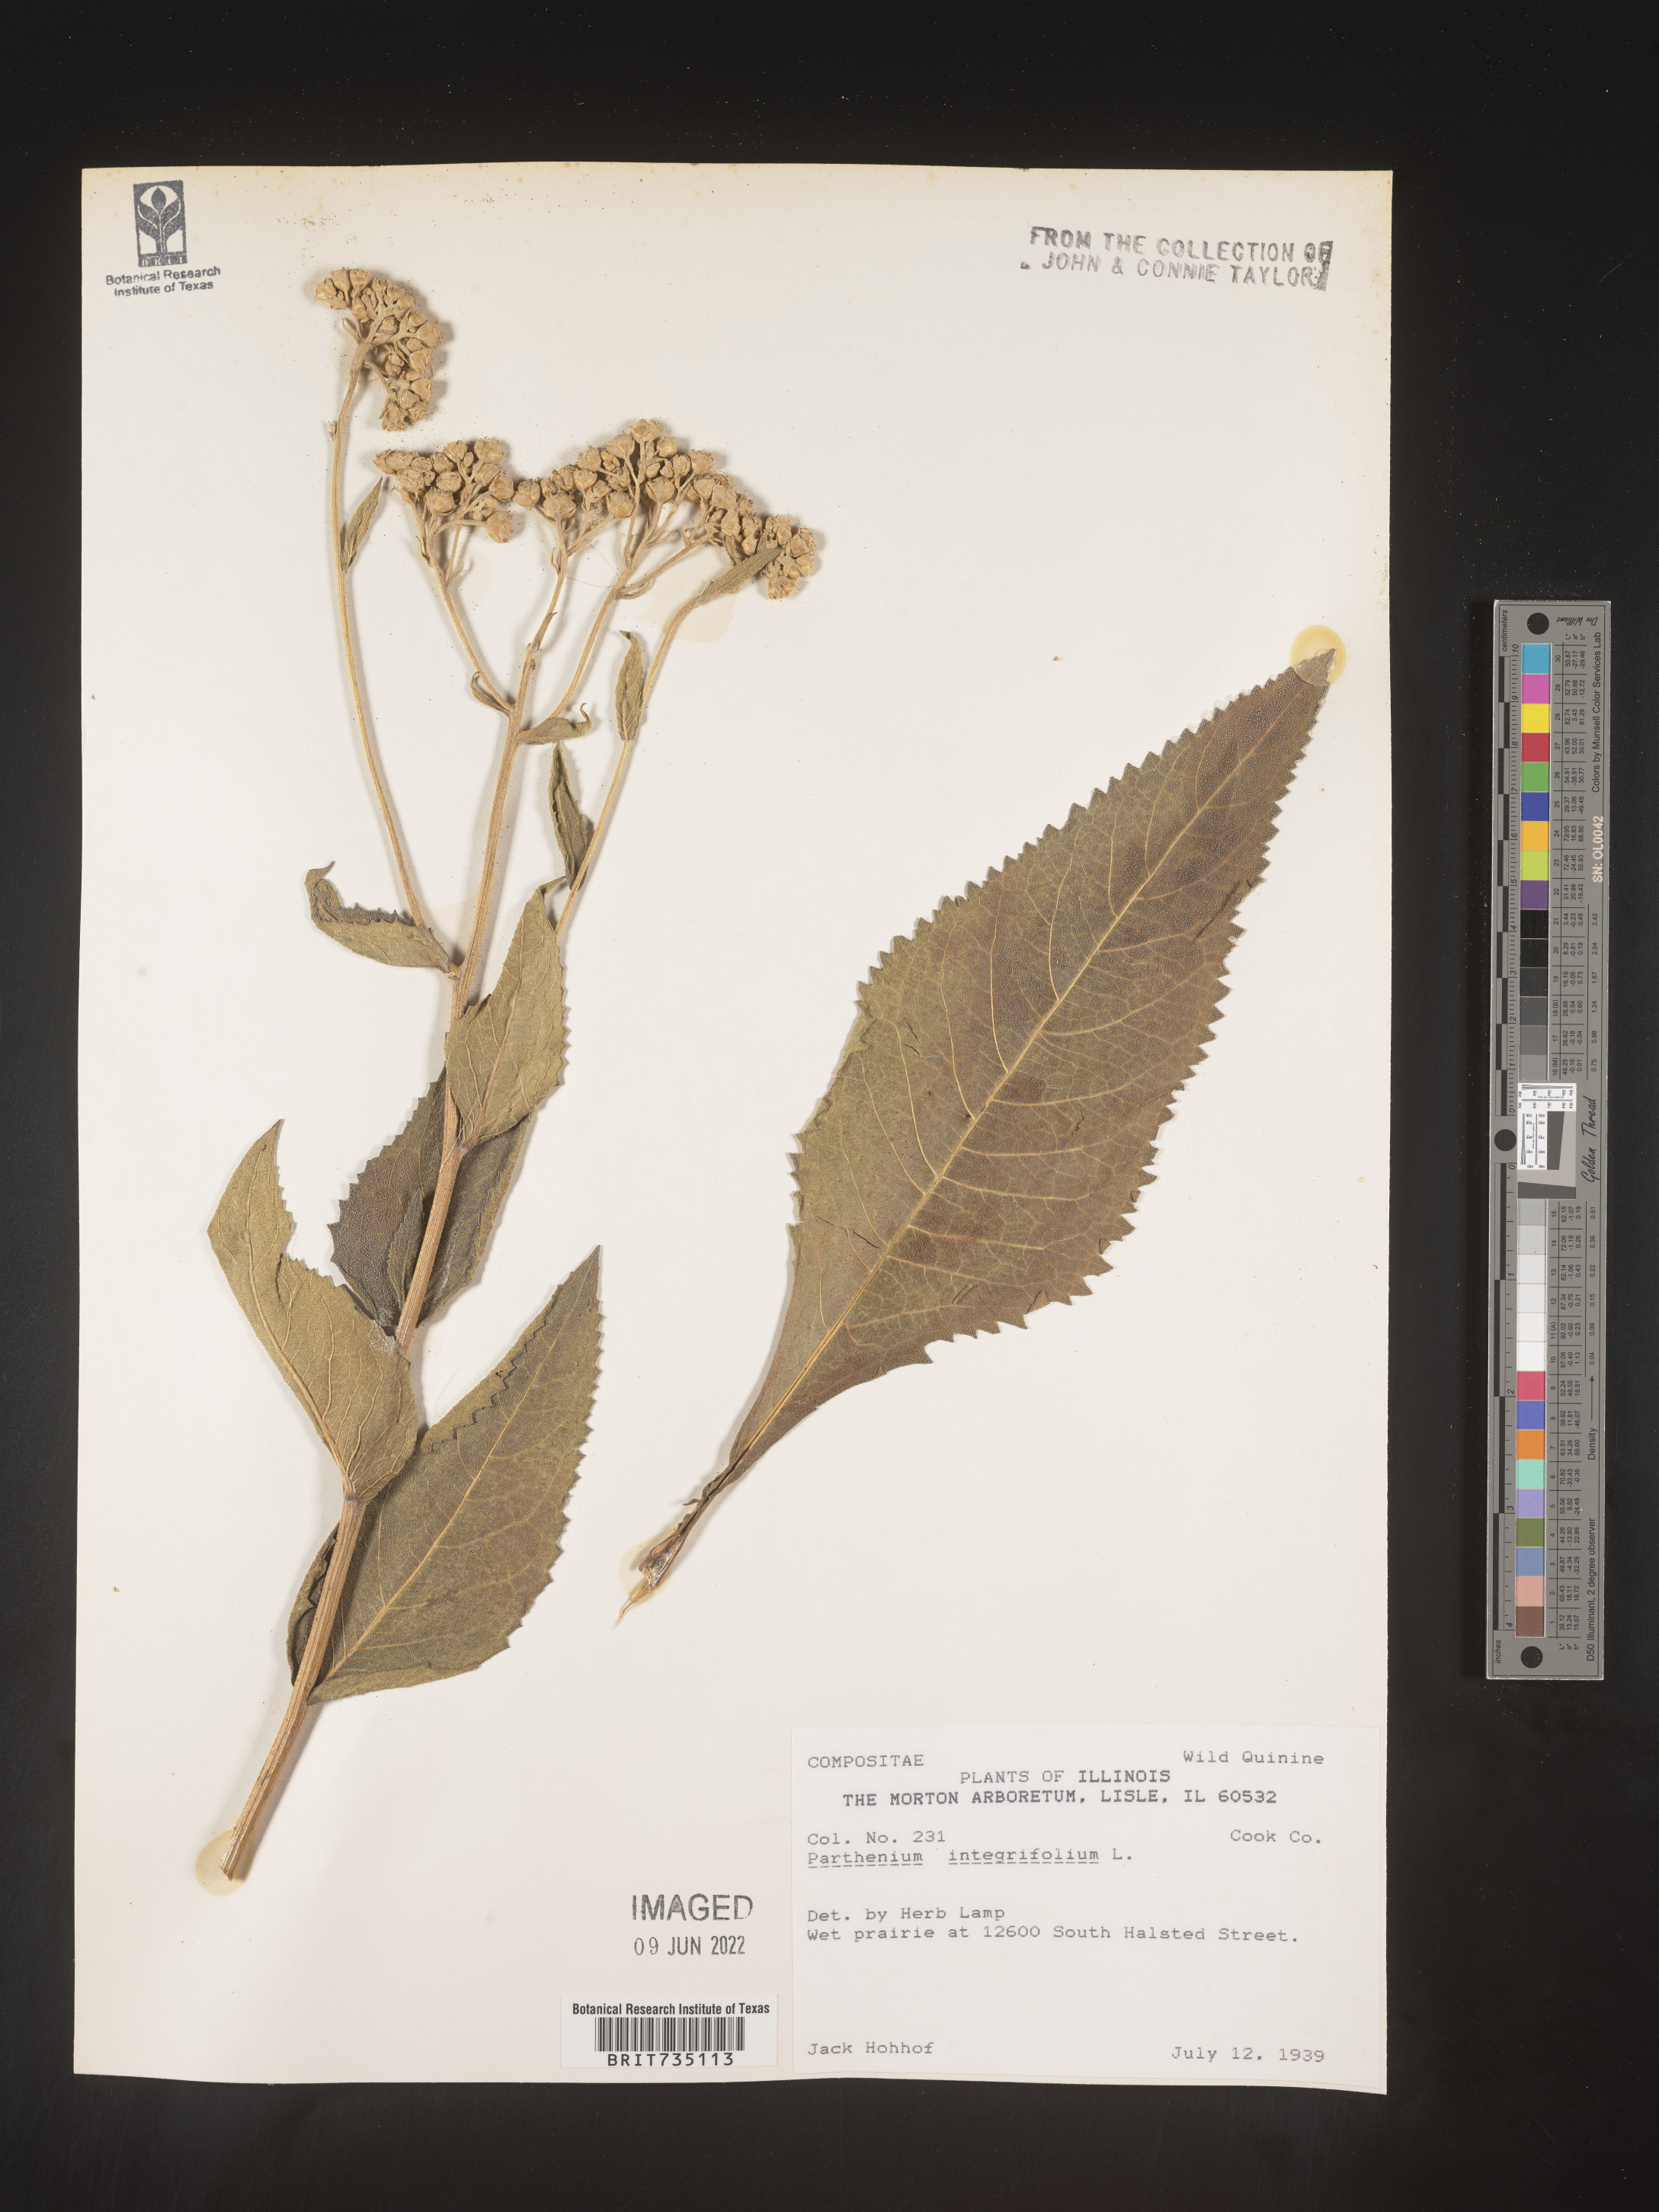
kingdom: Plantae
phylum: Tracheophyta
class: Magnoliopsida
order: Asterales
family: Asteraceae
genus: Parthenium
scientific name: Parthenium integrifolium
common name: American feverfew
